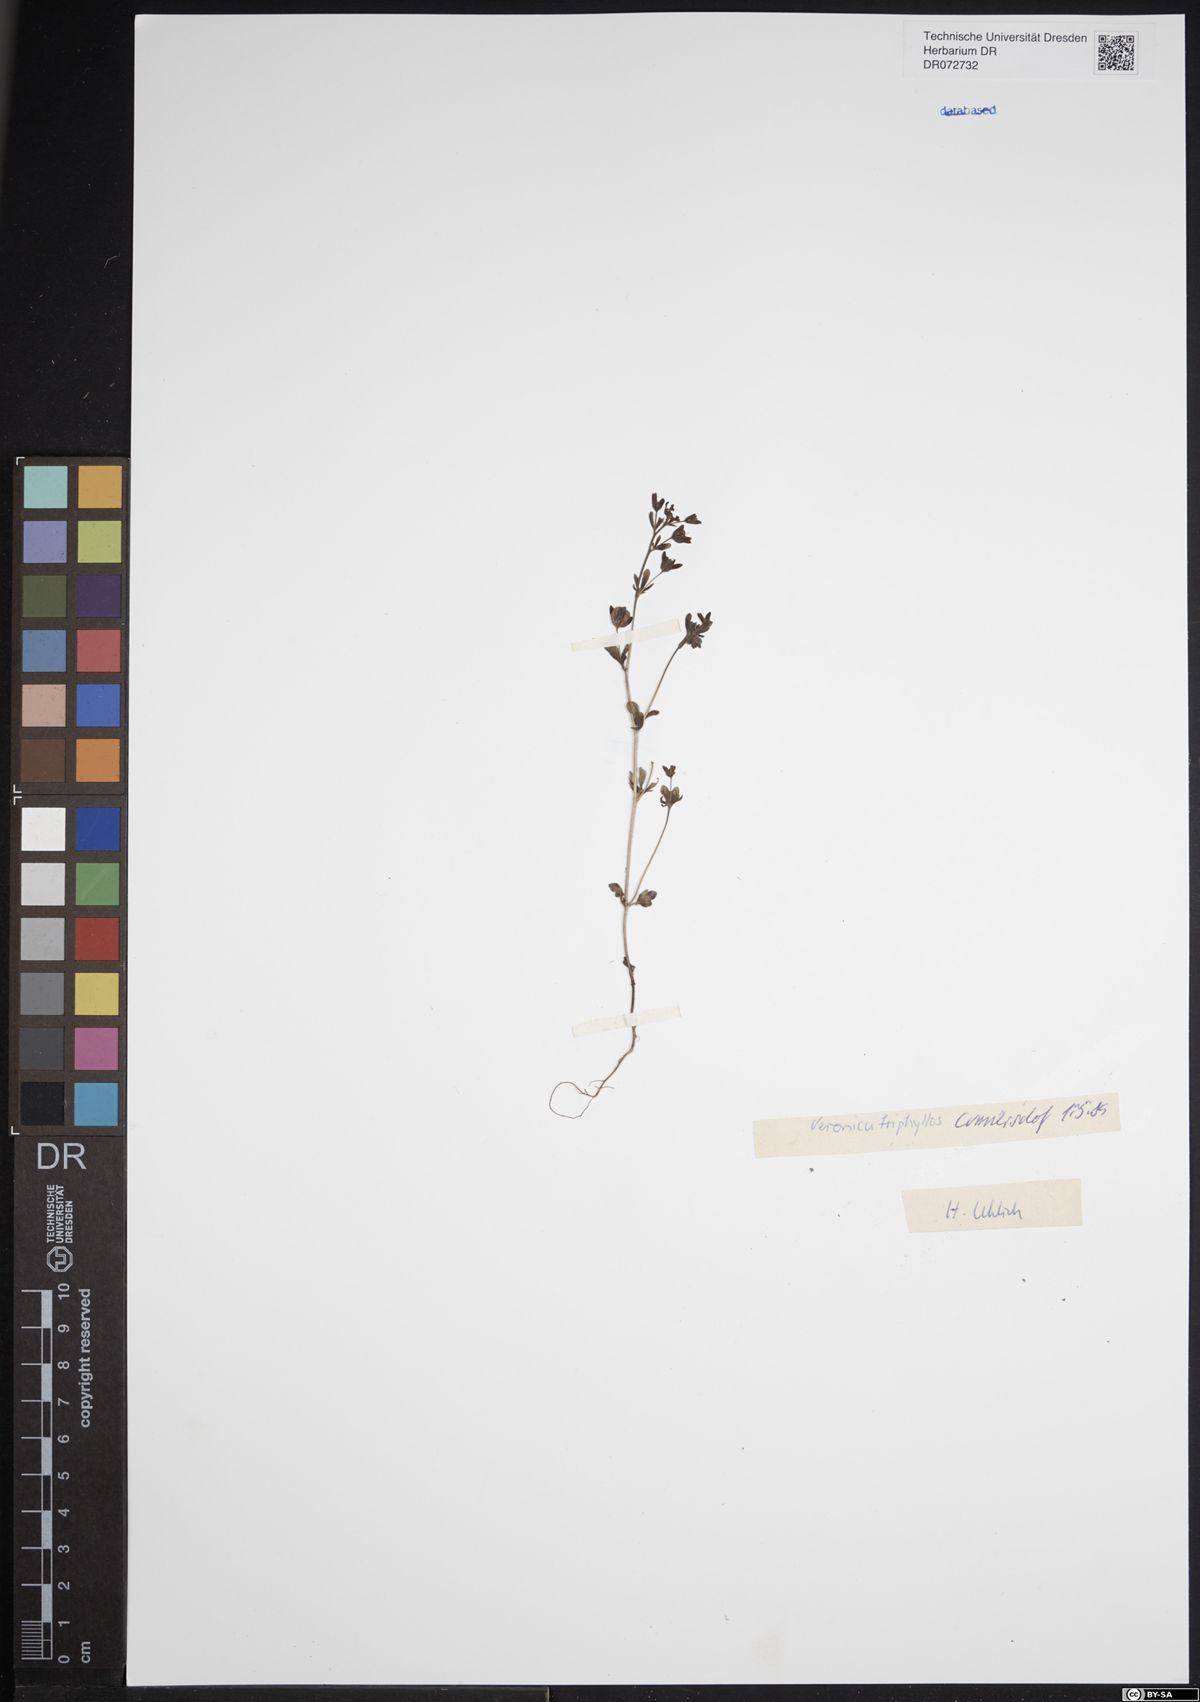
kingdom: Plantae
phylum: Tracheophyta
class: Magnoliopsida
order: Lamiales
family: Plantaginaceae
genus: Veronica
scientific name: Veronica triphyllos
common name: Fingered speedwell
